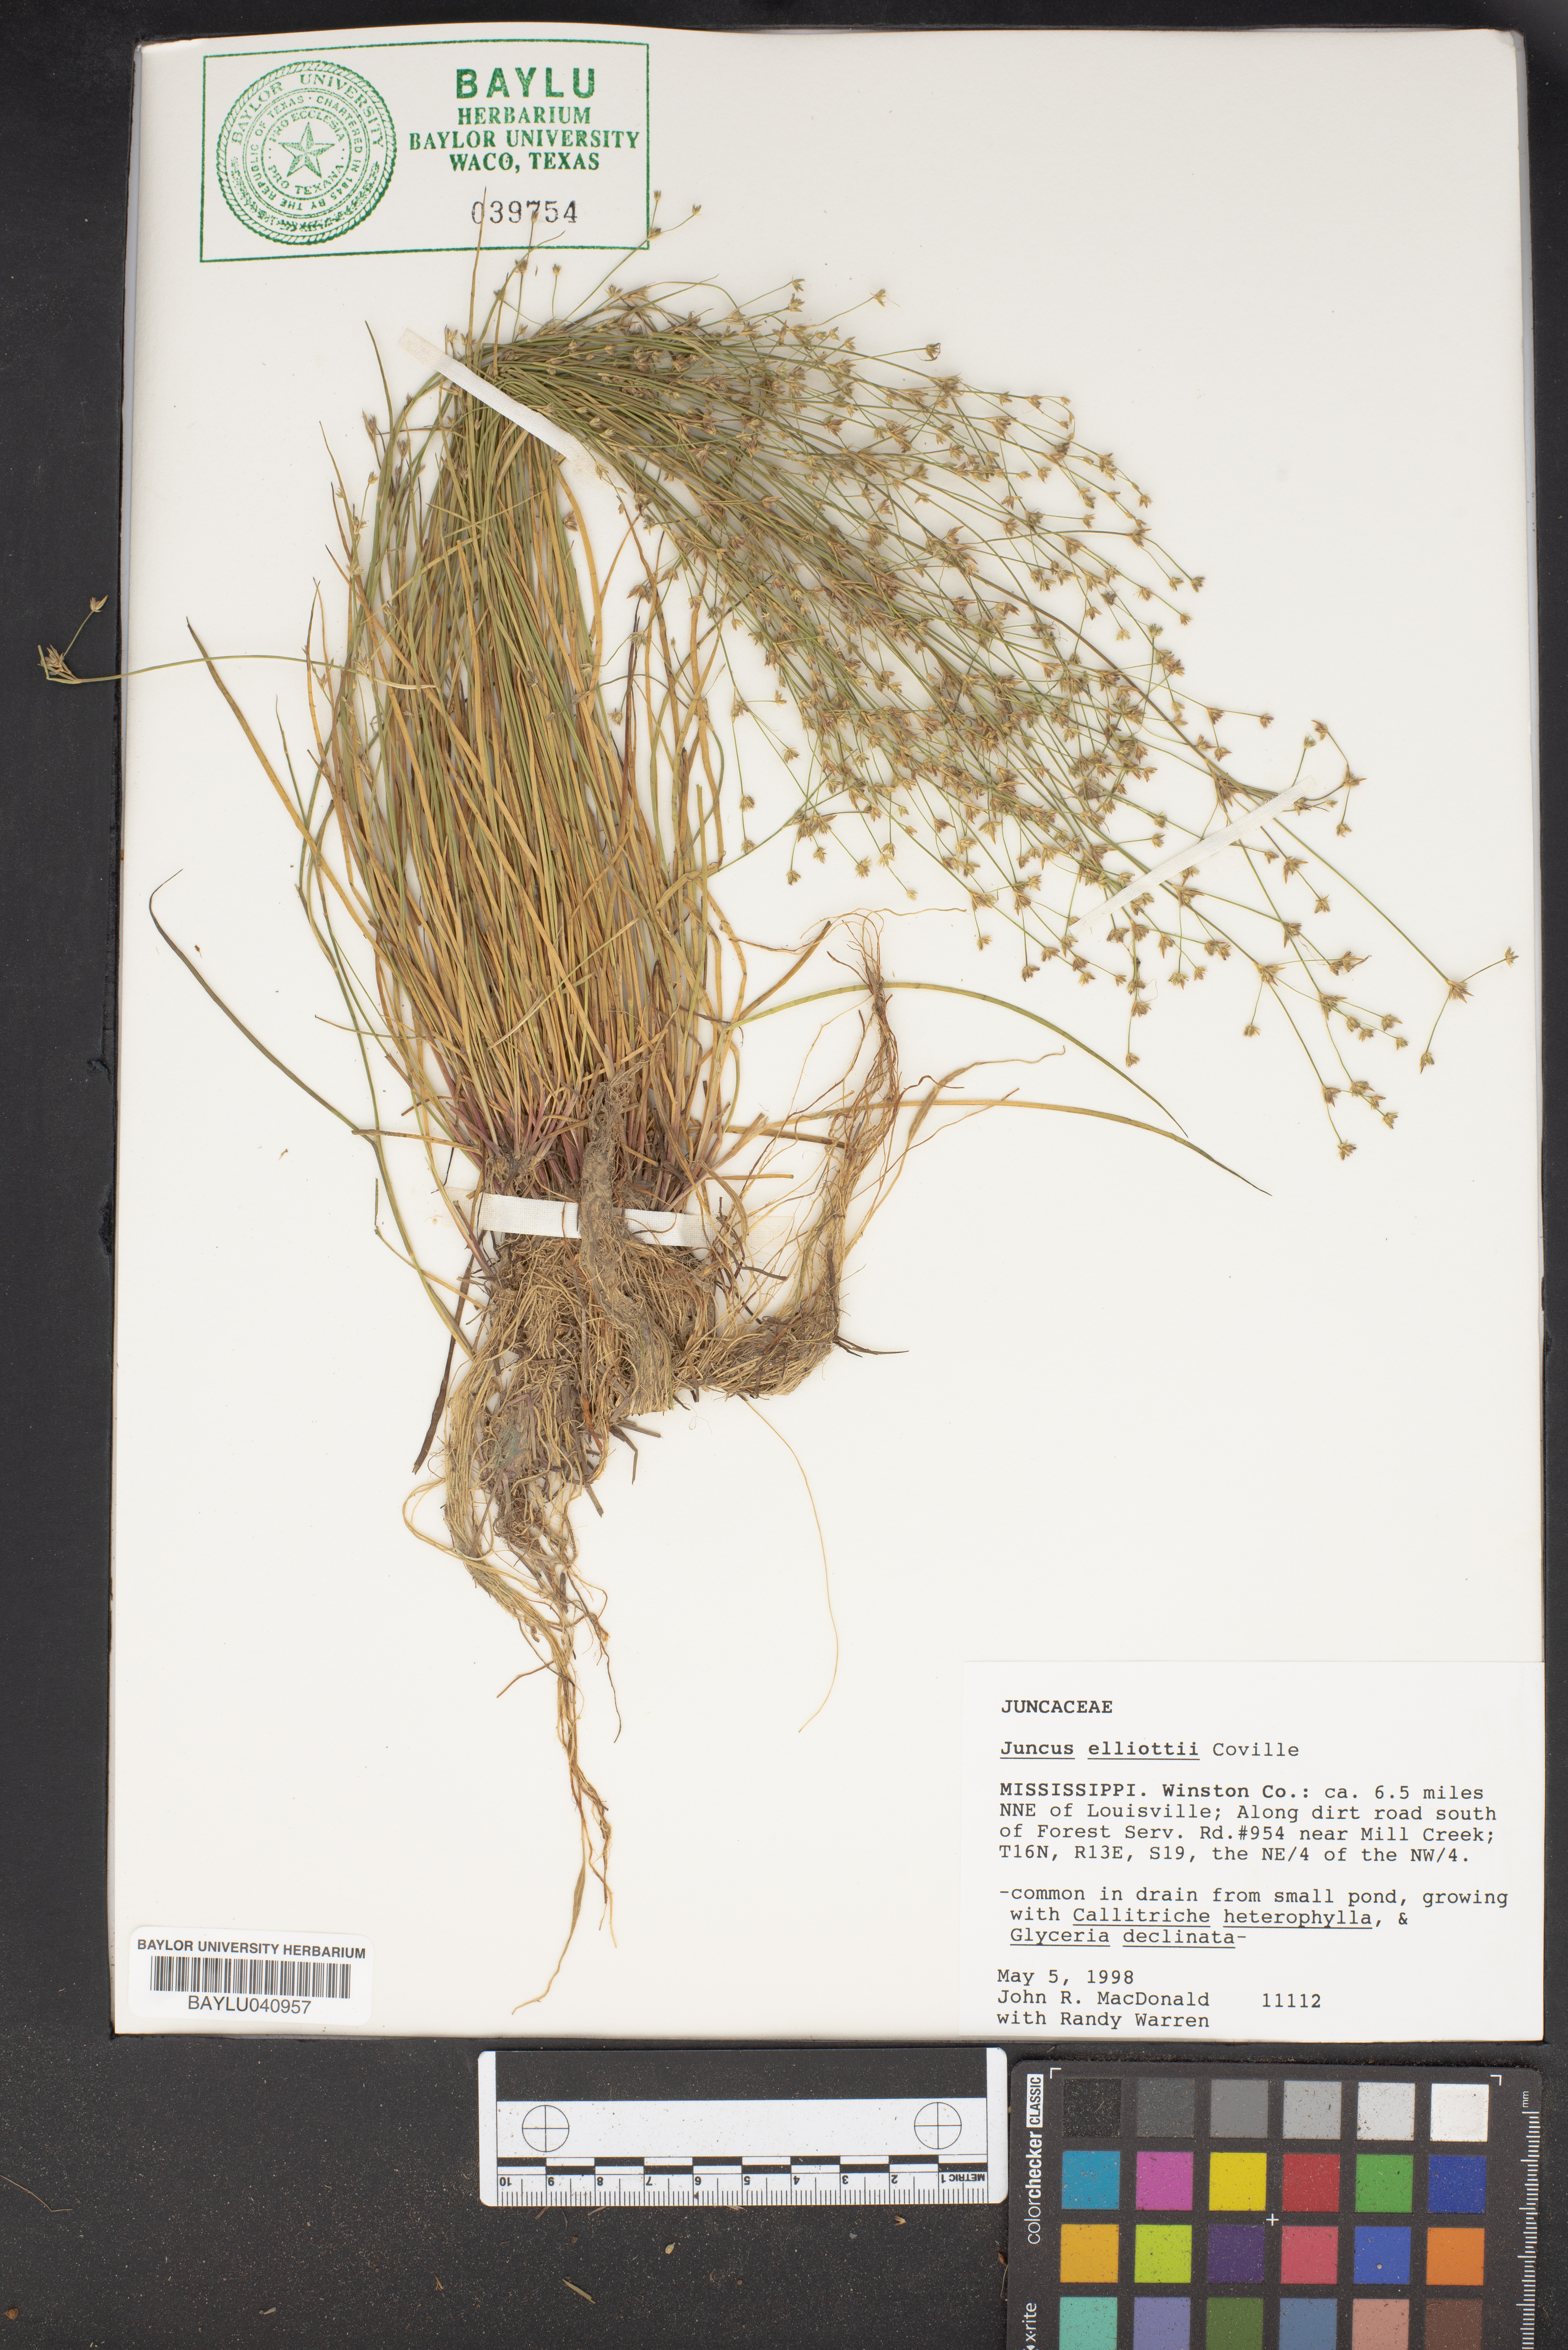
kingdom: Plantae
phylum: Tracheophyta
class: Liliopsida
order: Poales
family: Juncaceae
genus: Juncus
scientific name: Juncus elliottii
